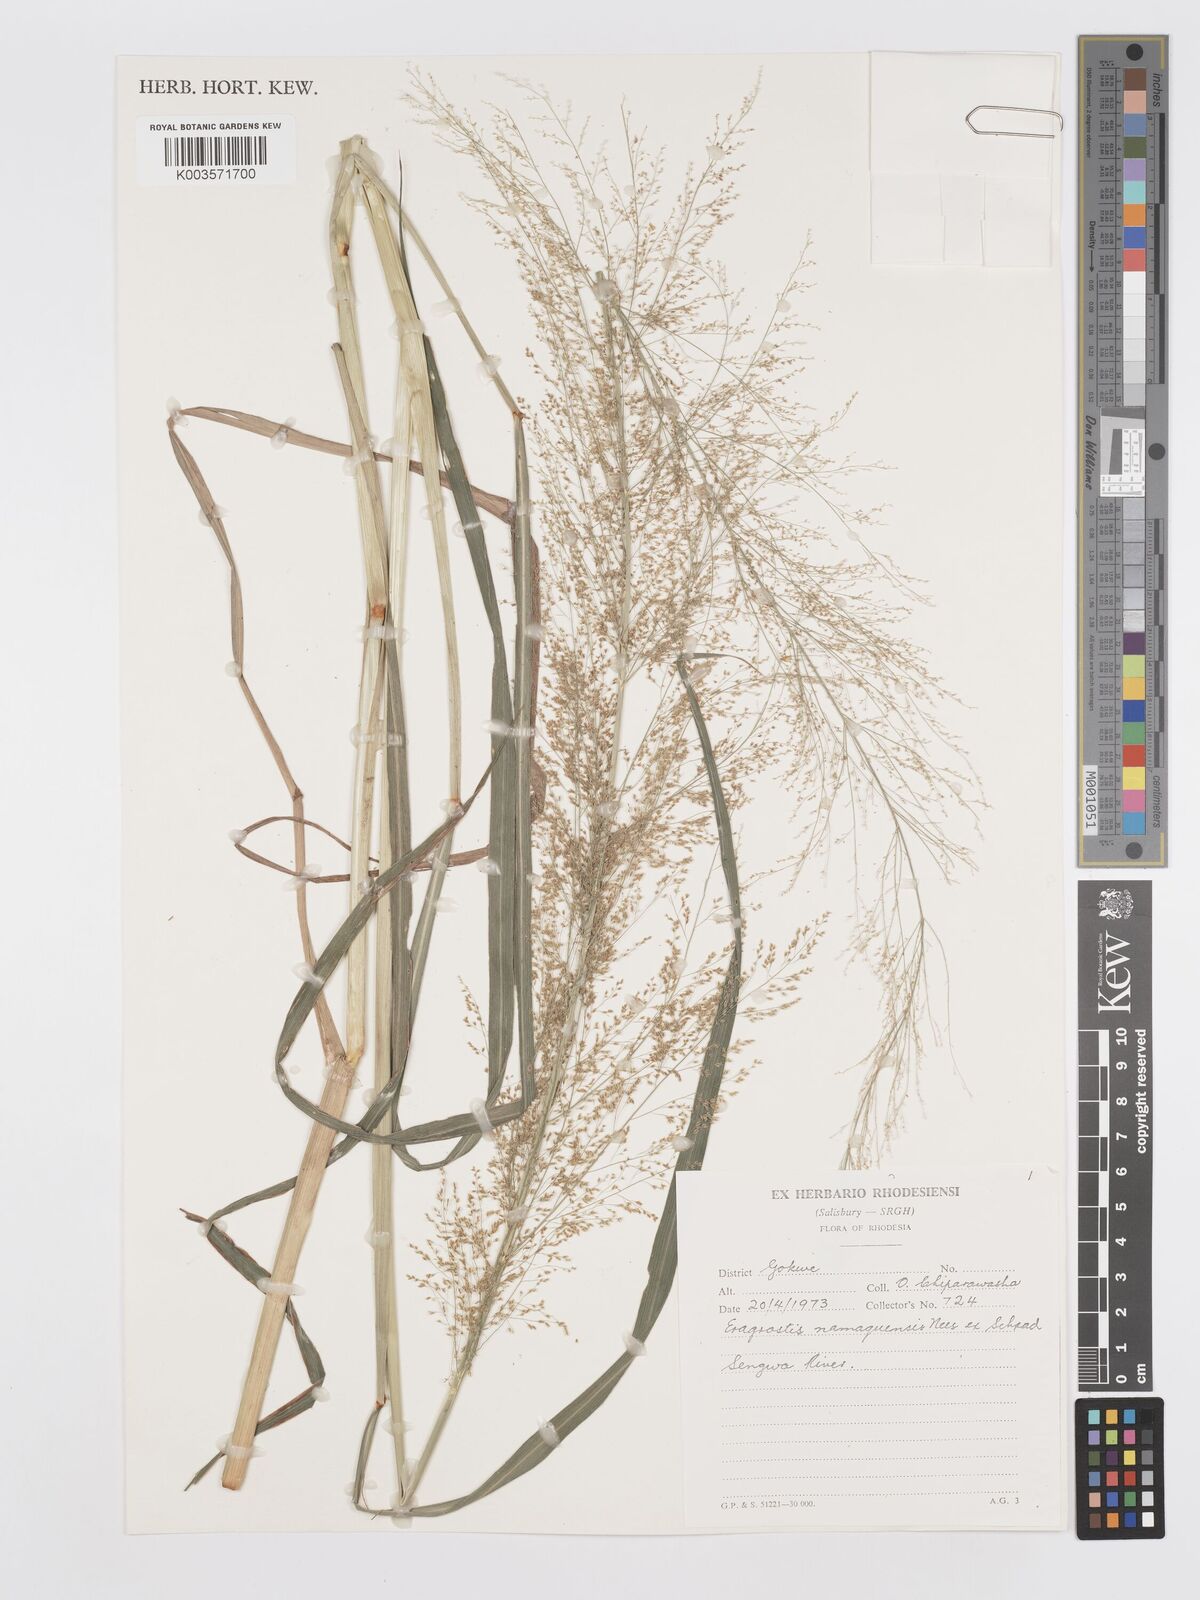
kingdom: Plantae
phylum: Tracheophyta
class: Liliopsida
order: Poales
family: Poaceae
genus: Eragrostis
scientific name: Eragrostis japonica
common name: Pond lovegrass
